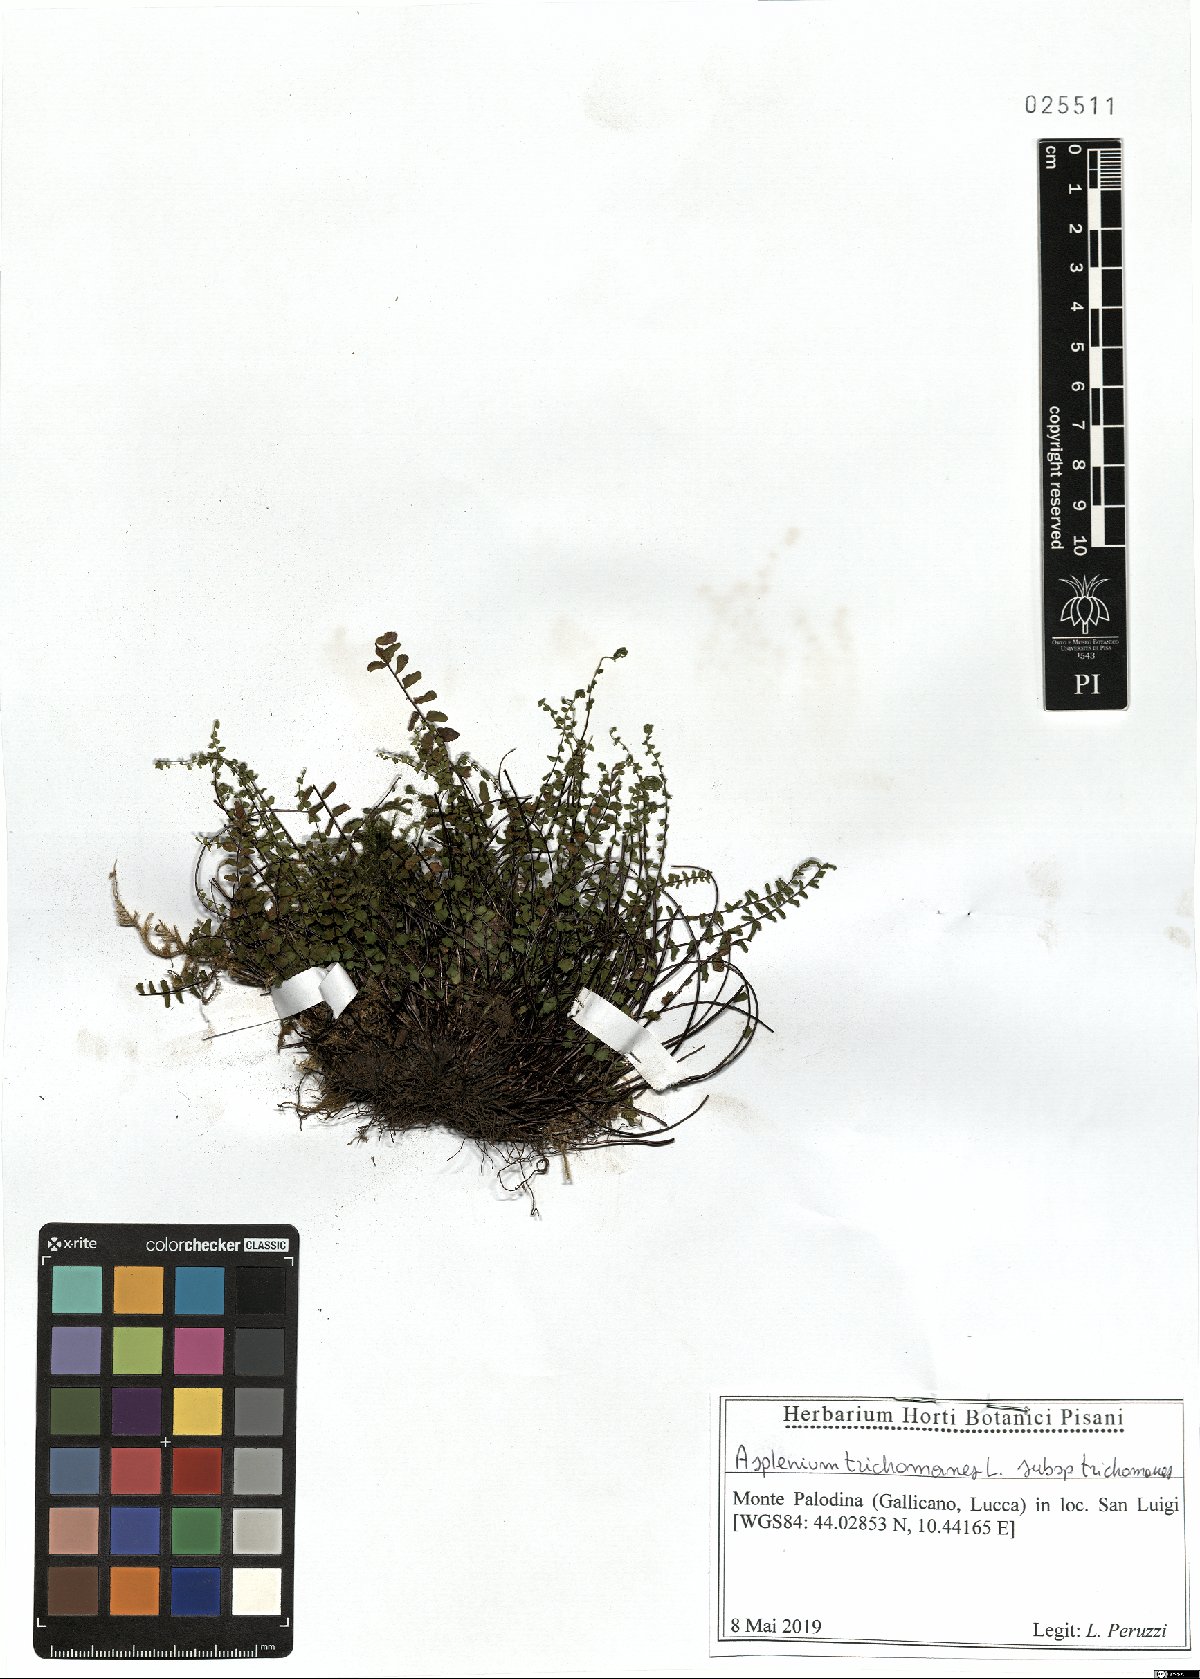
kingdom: Plantae
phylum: Tracheophyta
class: Polypodiopsida
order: Polypodiales
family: Aspleniaceae
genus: Asplenium
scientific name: Asplenium trichomanes
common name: Maidenhair spleenwort
